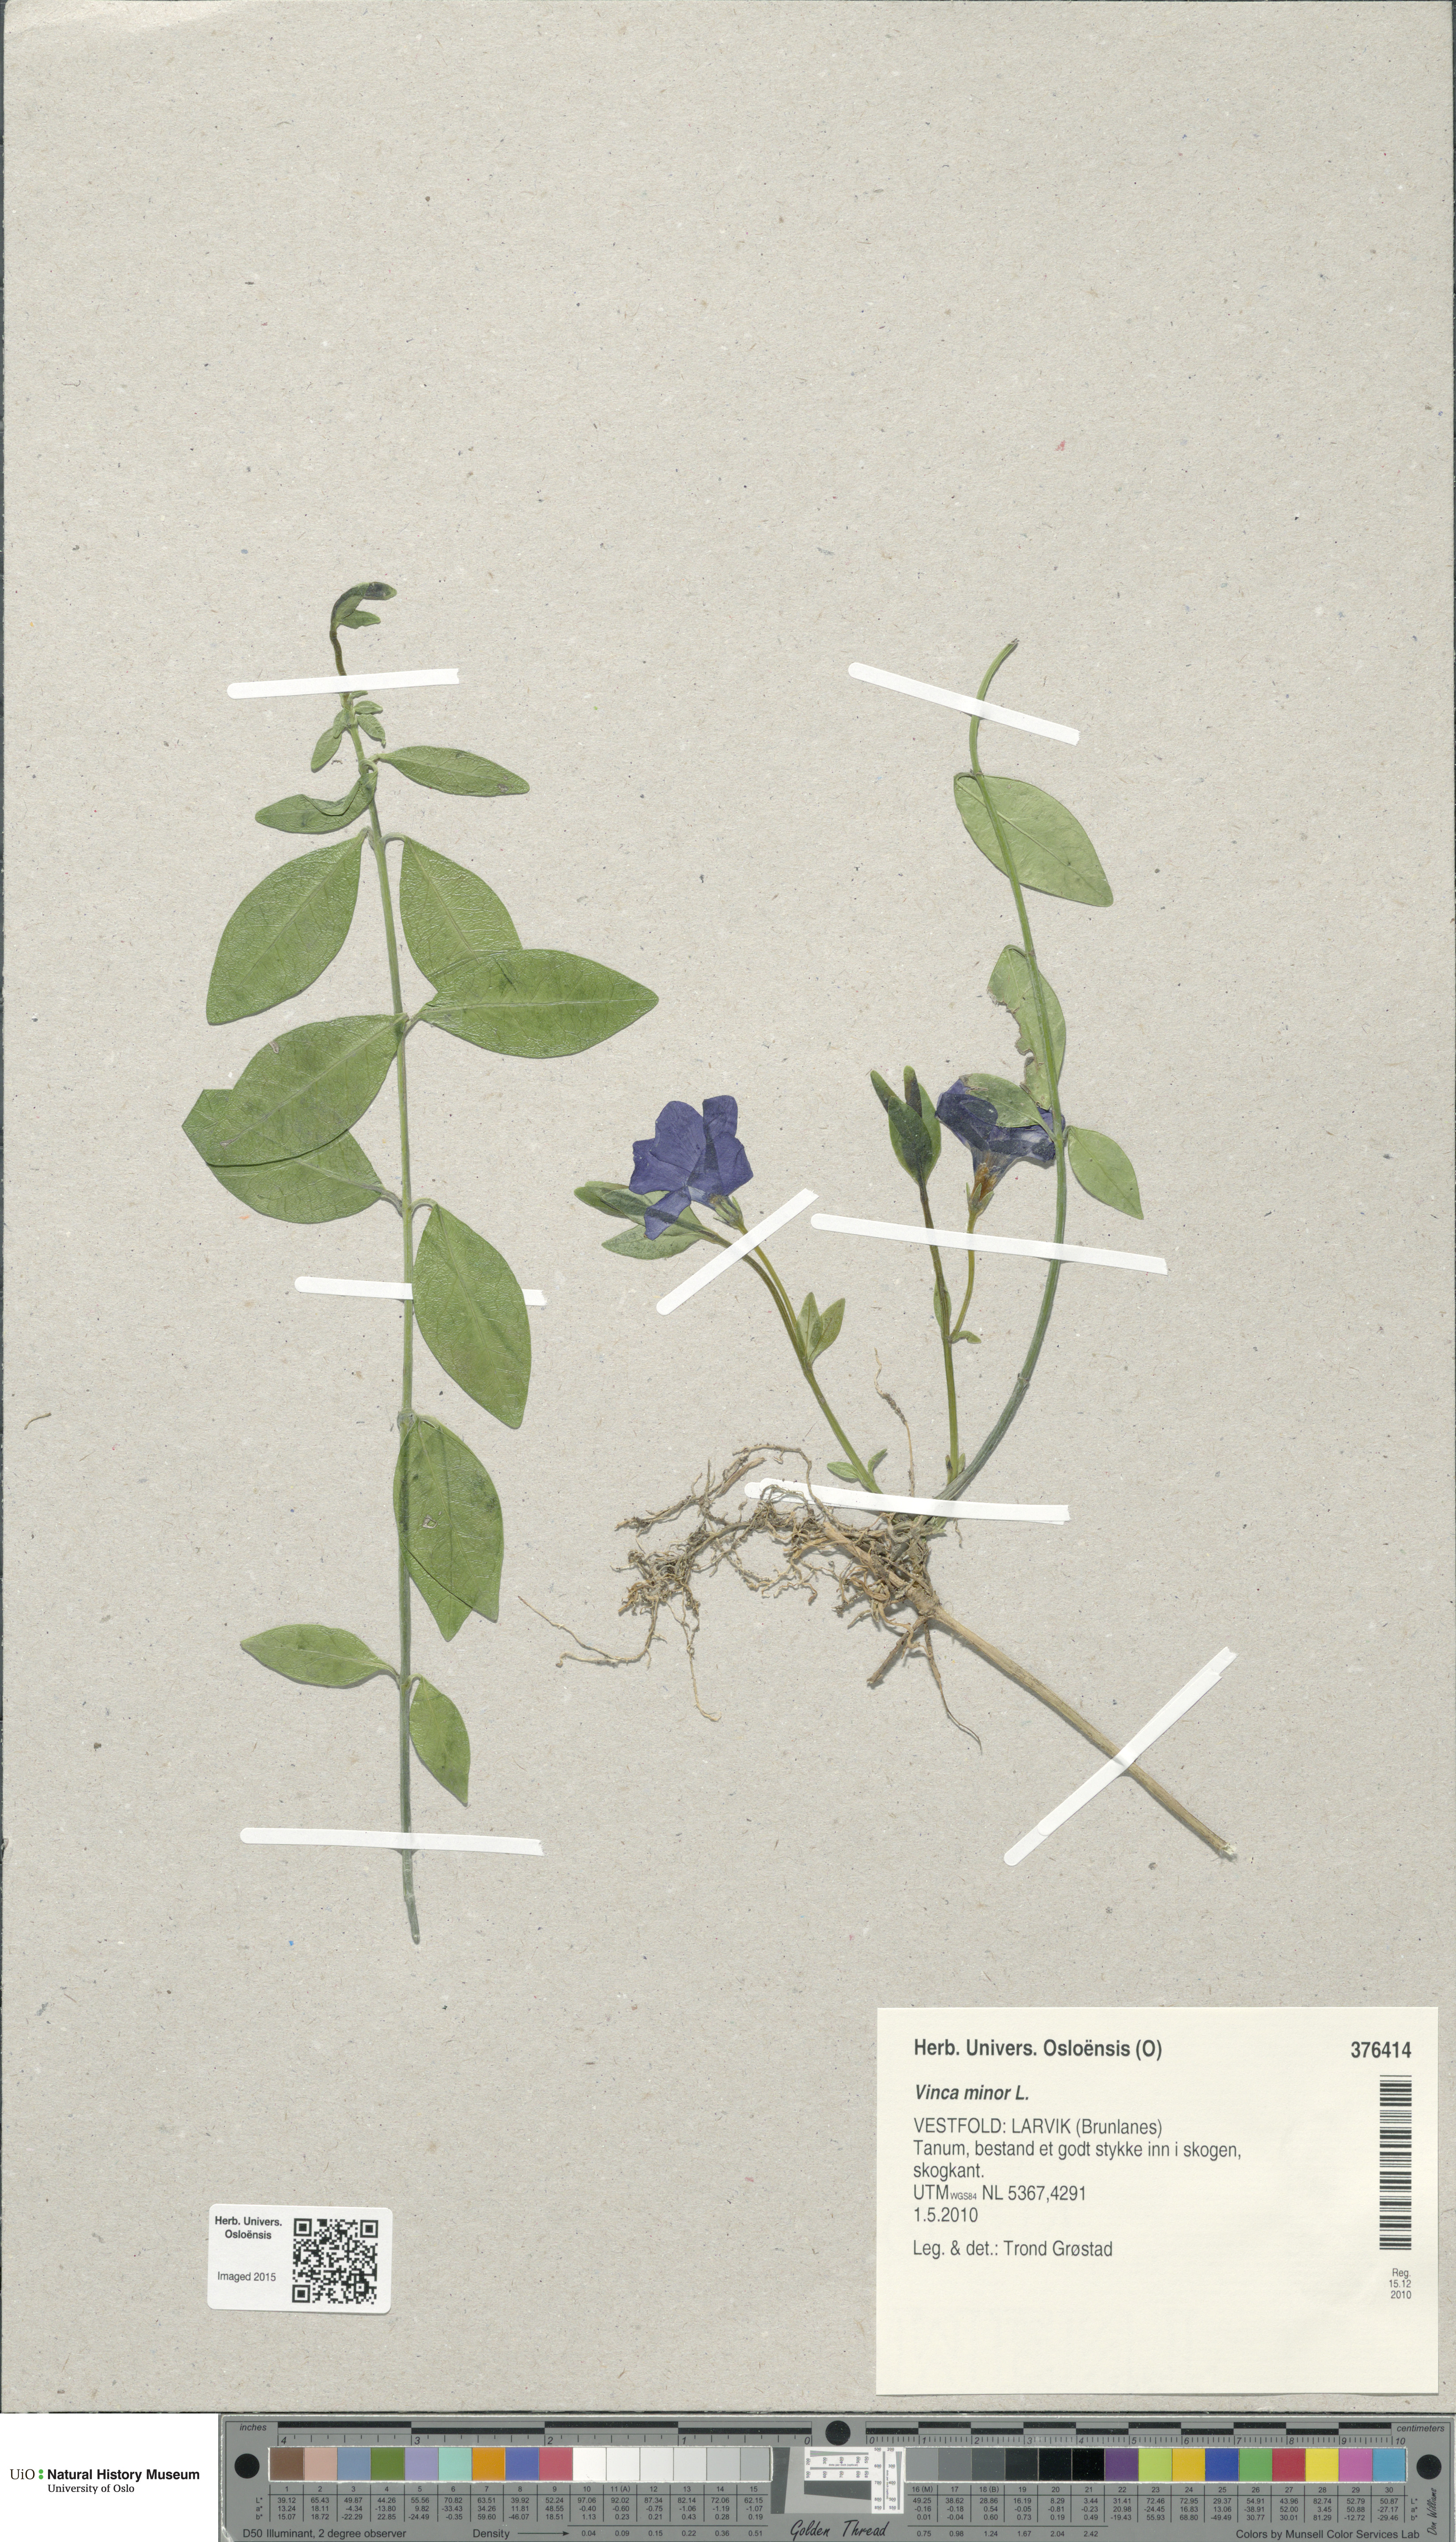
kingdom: Plantae
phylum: Tracheophyta
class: Magnoliopsida
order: Gentianales
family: Apocynaceae
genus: Vinca
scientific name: Vinca minor
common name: Lesser periwinkle
